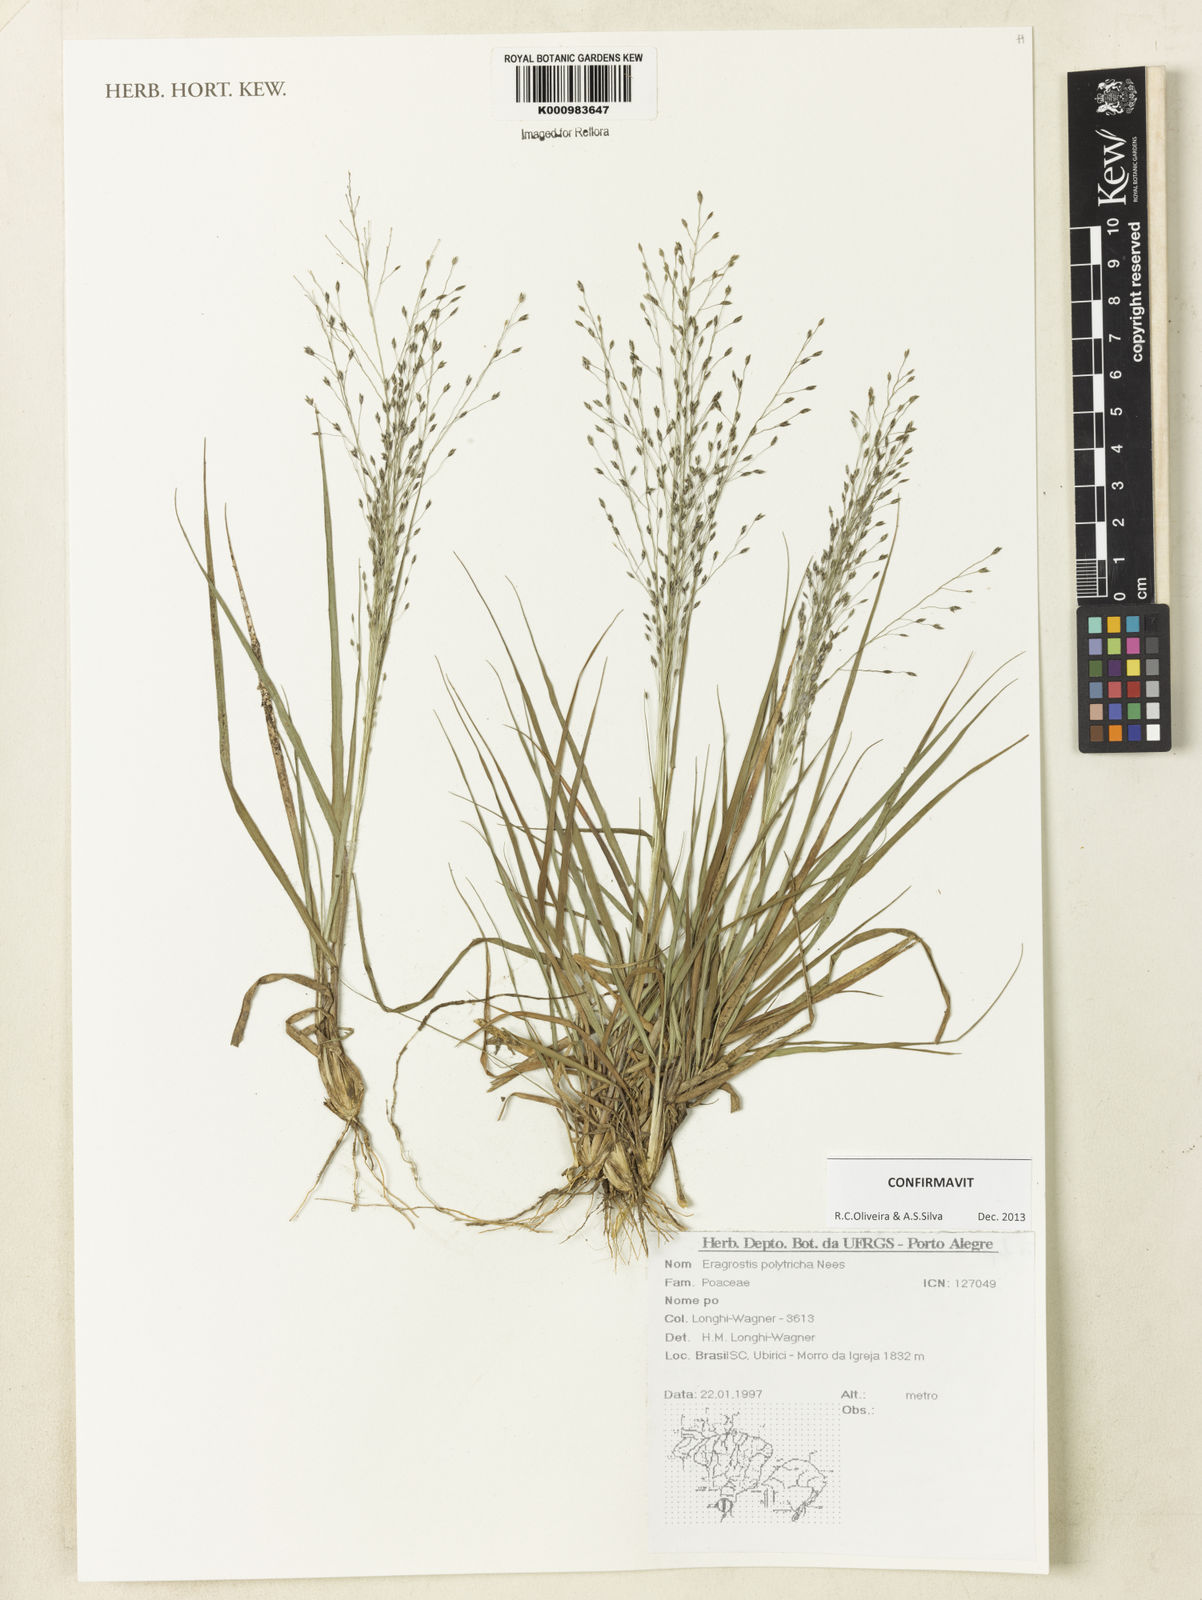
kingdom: Plantae
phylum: Tracheophyta
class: Liliopsida
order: Poales
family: Poaceae
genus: Eragrostis
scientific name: Eragrostis polytricha
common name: Hairy-sheath love grass
